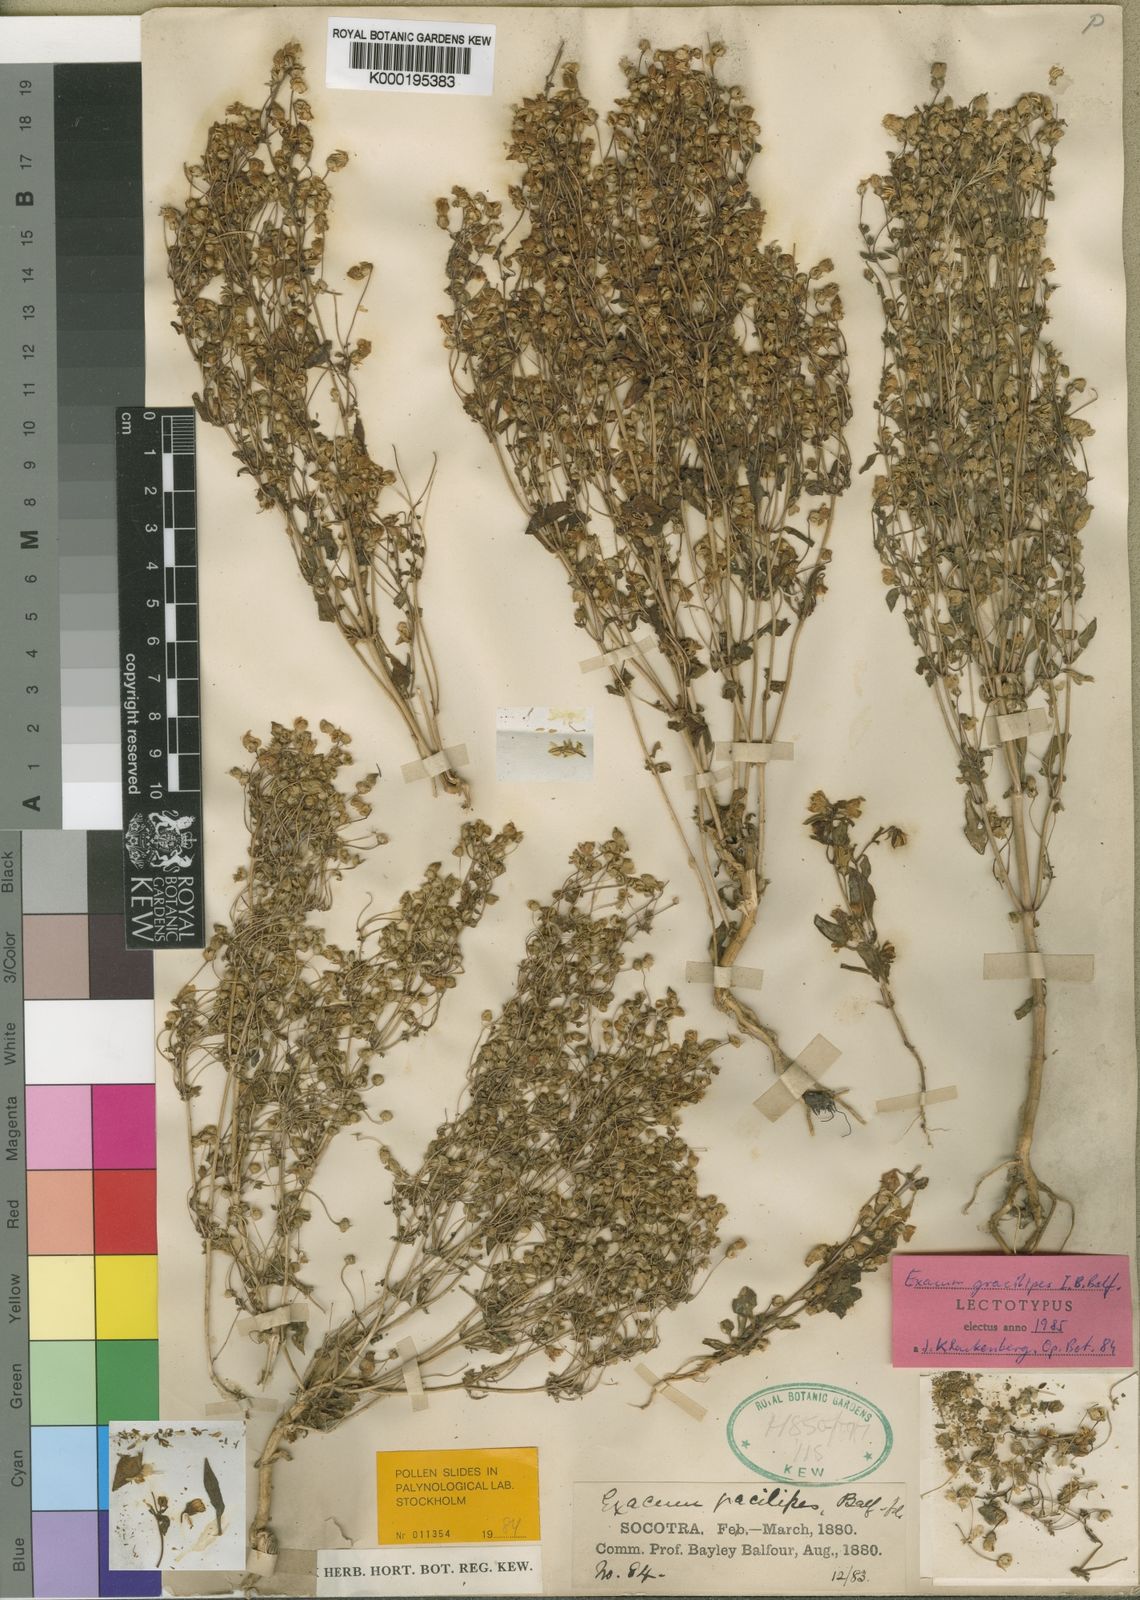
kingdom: Plantae
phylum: Tracheophyta
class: Magnoliopsida
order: Gentianales
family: Gentianaceae
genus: Exacum
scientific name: Exacum affine
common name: German-violet
